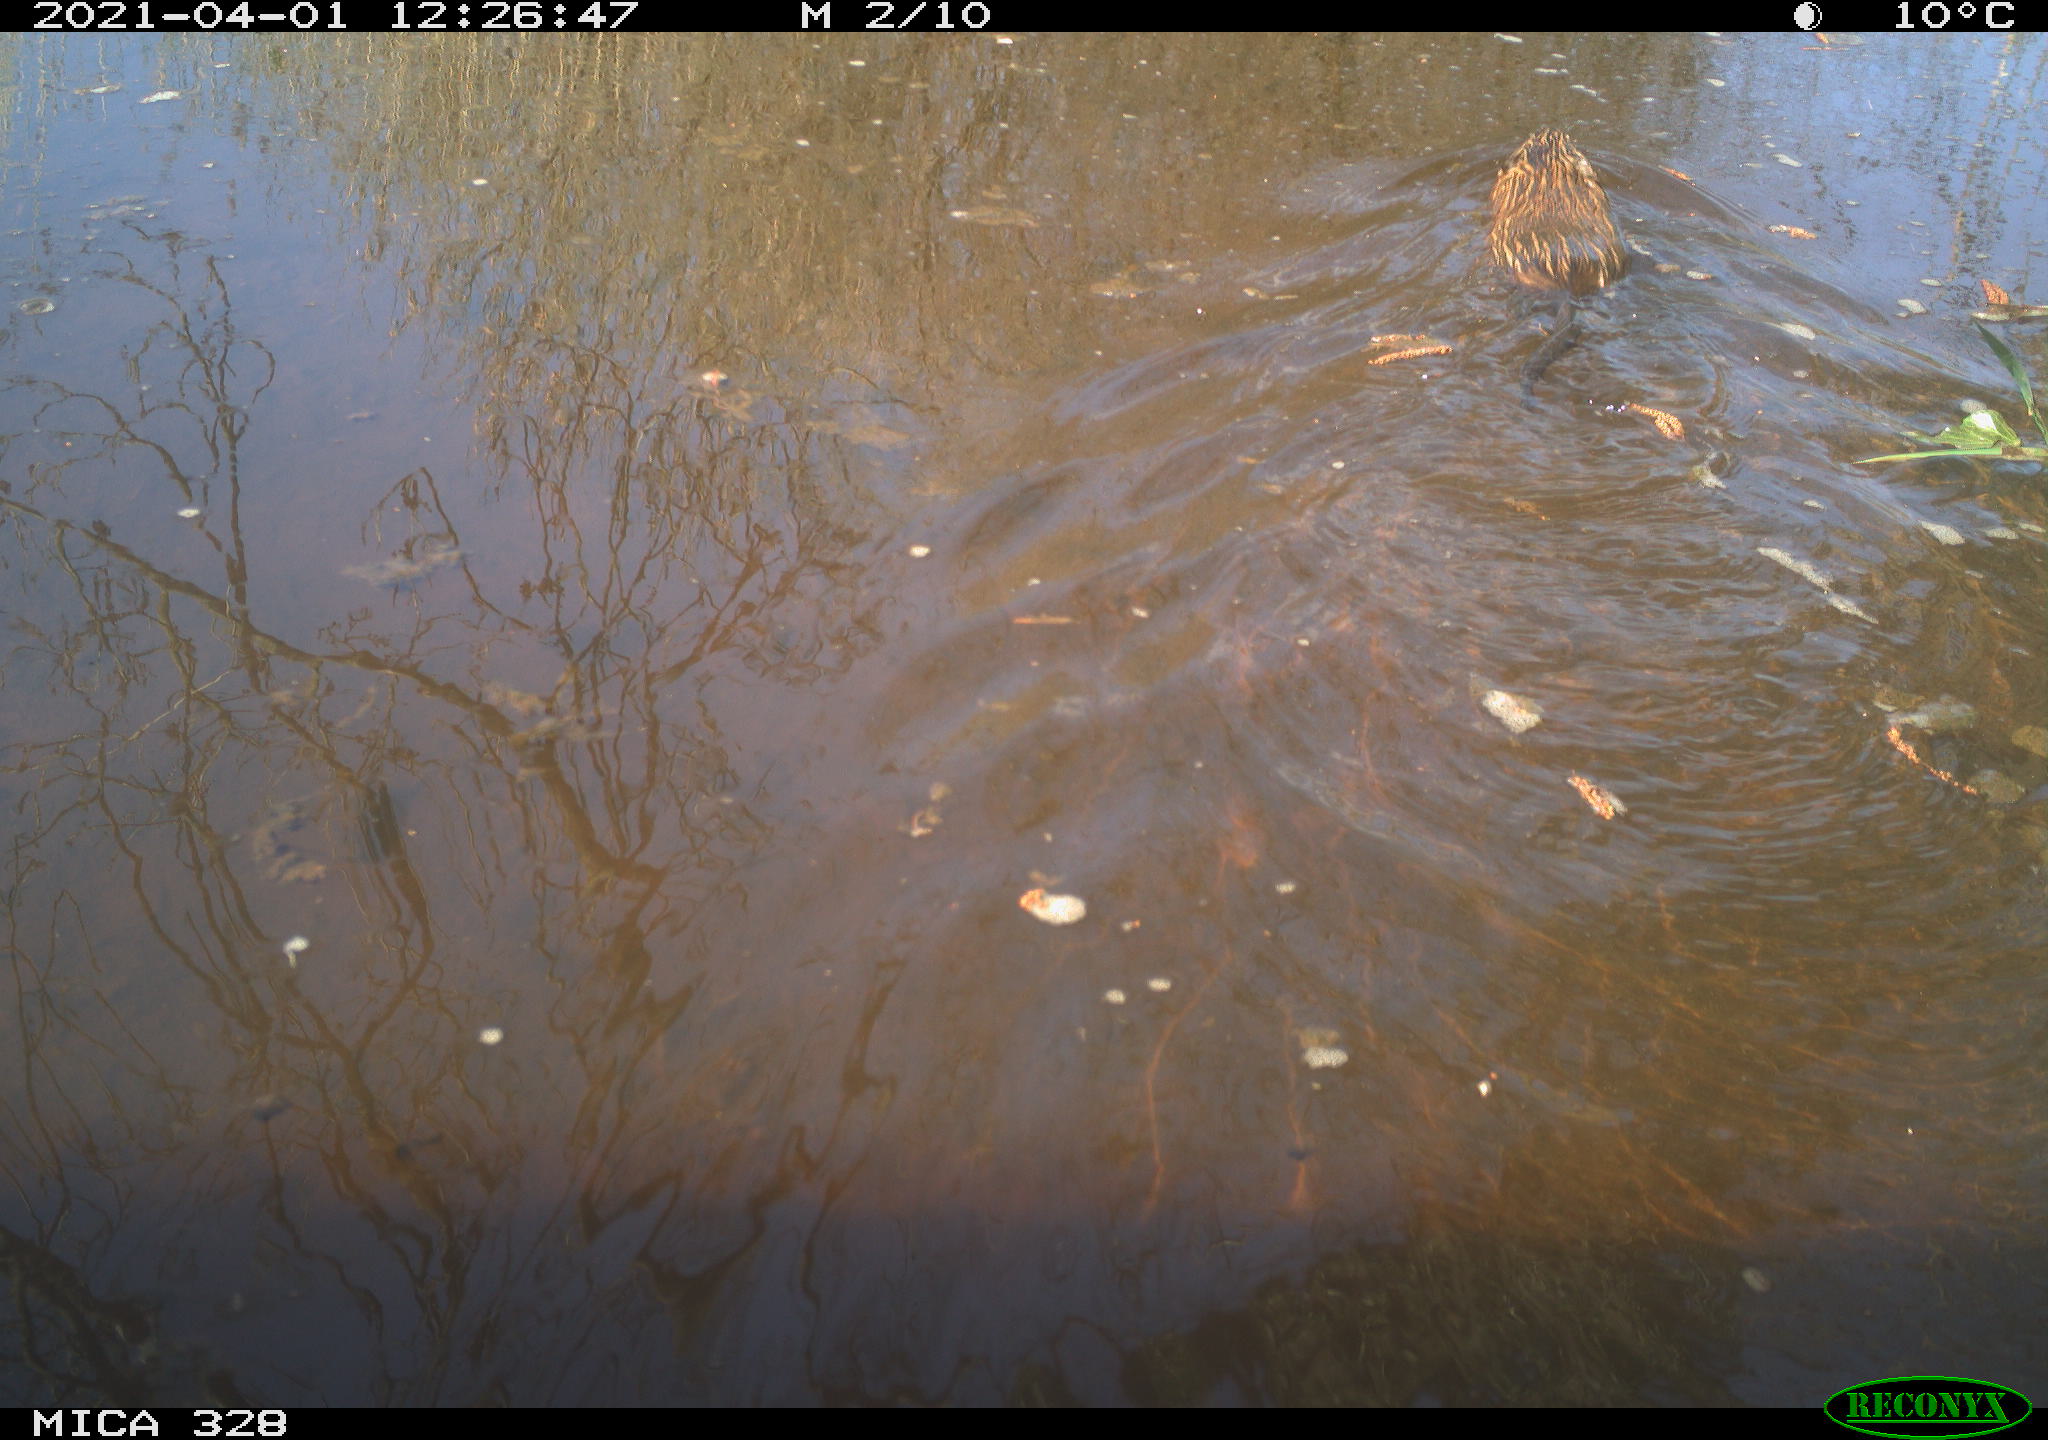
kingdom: Animalia
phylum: Chordata
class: Mammalia
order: Rodentia
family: Cricetidae
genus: Ondatra
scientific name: Ondatra zibethicus
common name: Muskrat
